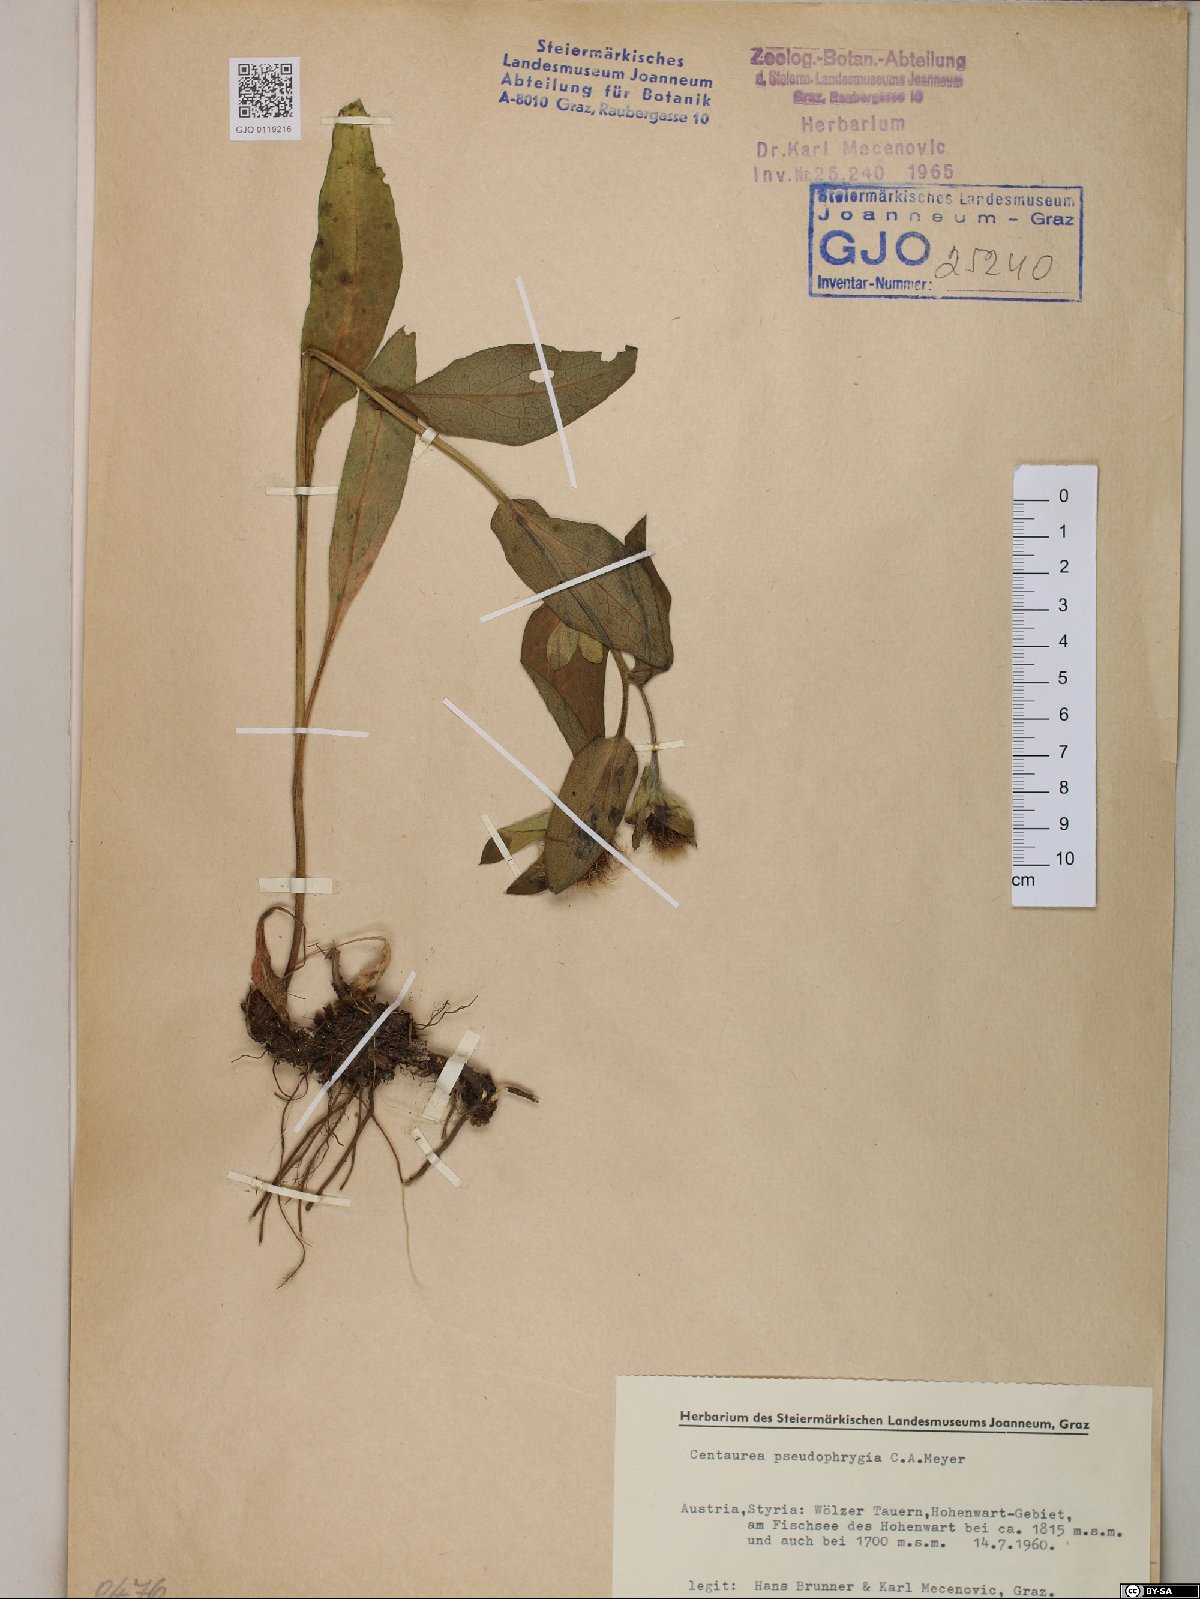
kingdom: Plantae
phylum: Tracheophyta
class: Magnoliopsida
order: Asterales
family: Asteraceae
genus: Centaurea
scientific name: Centaurea pseudophrygia
